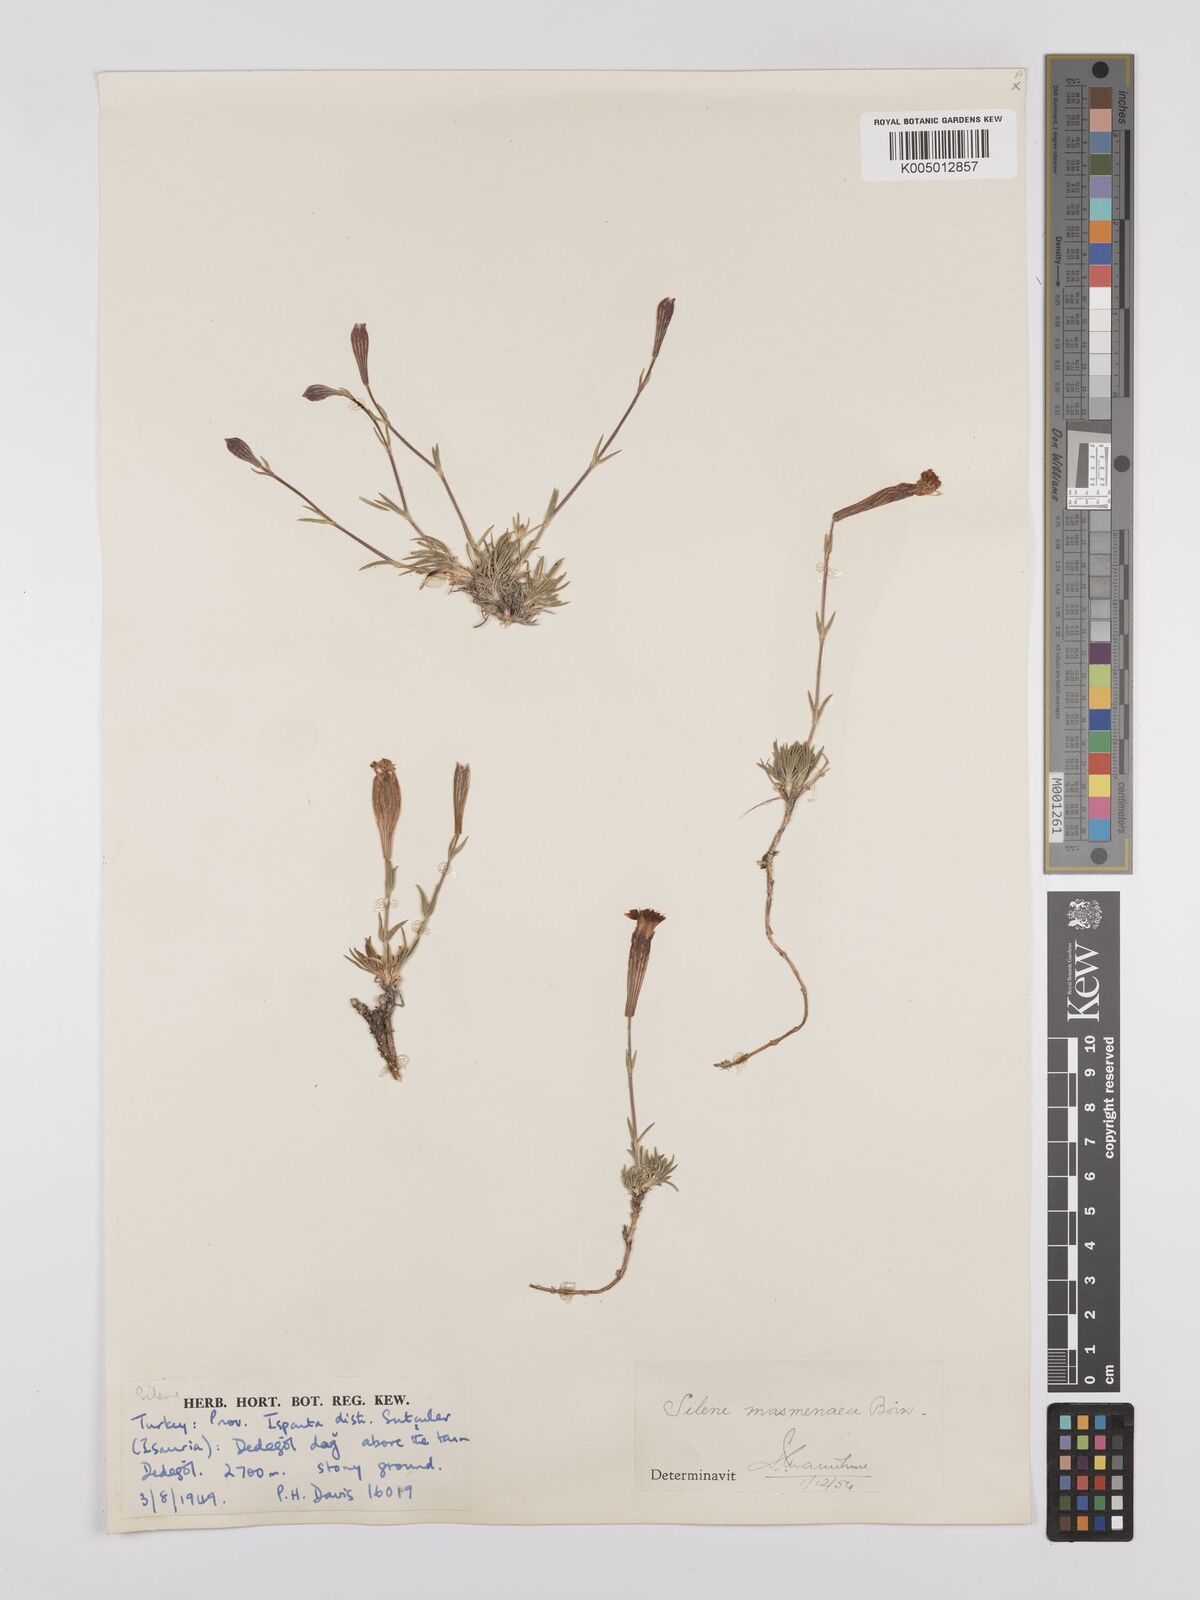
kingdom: Plantae
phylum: Tracheophyta
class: Magnoliopsida
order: Caryophyllales
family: Caryophyllaceae
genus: Silene
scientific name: Silene caryophylloides
